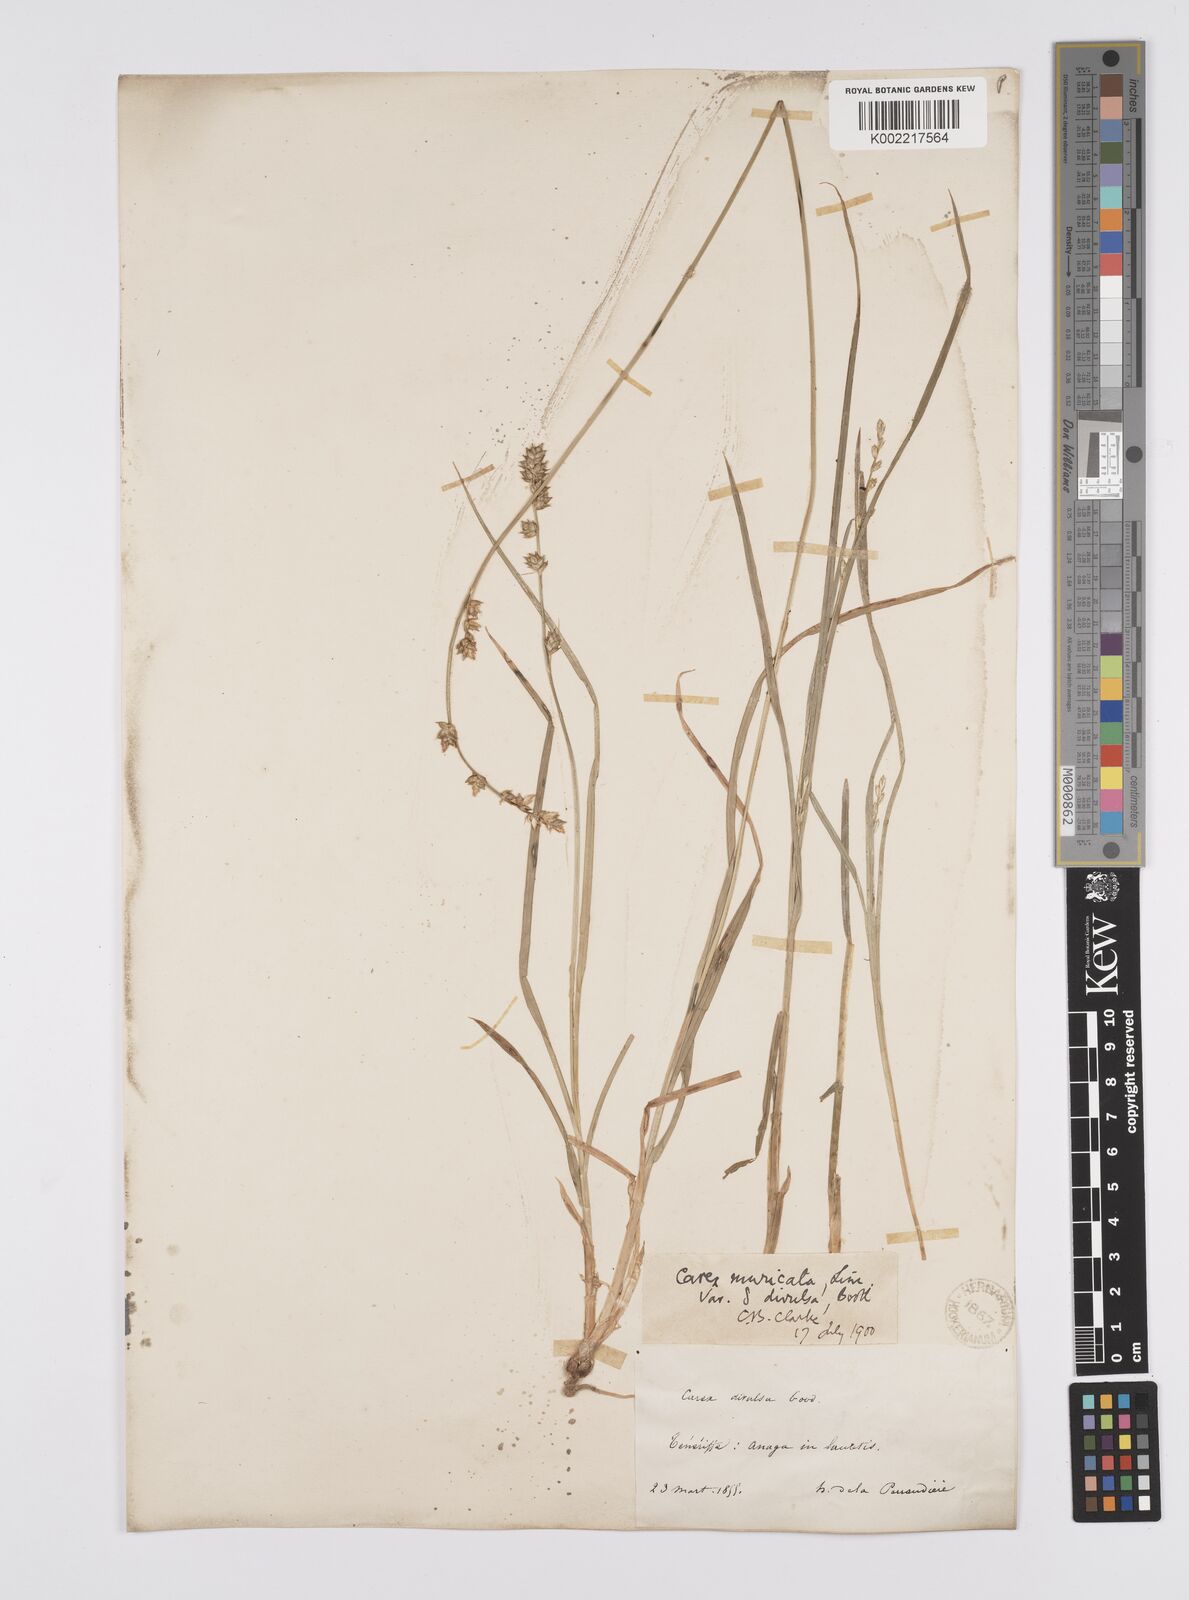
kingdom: Plantae
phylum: Tracheophyta
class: Liliopsida
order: Poales
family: Cyperaceae
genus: Carex
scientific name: Carex divulsa
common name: Grassland sedge
